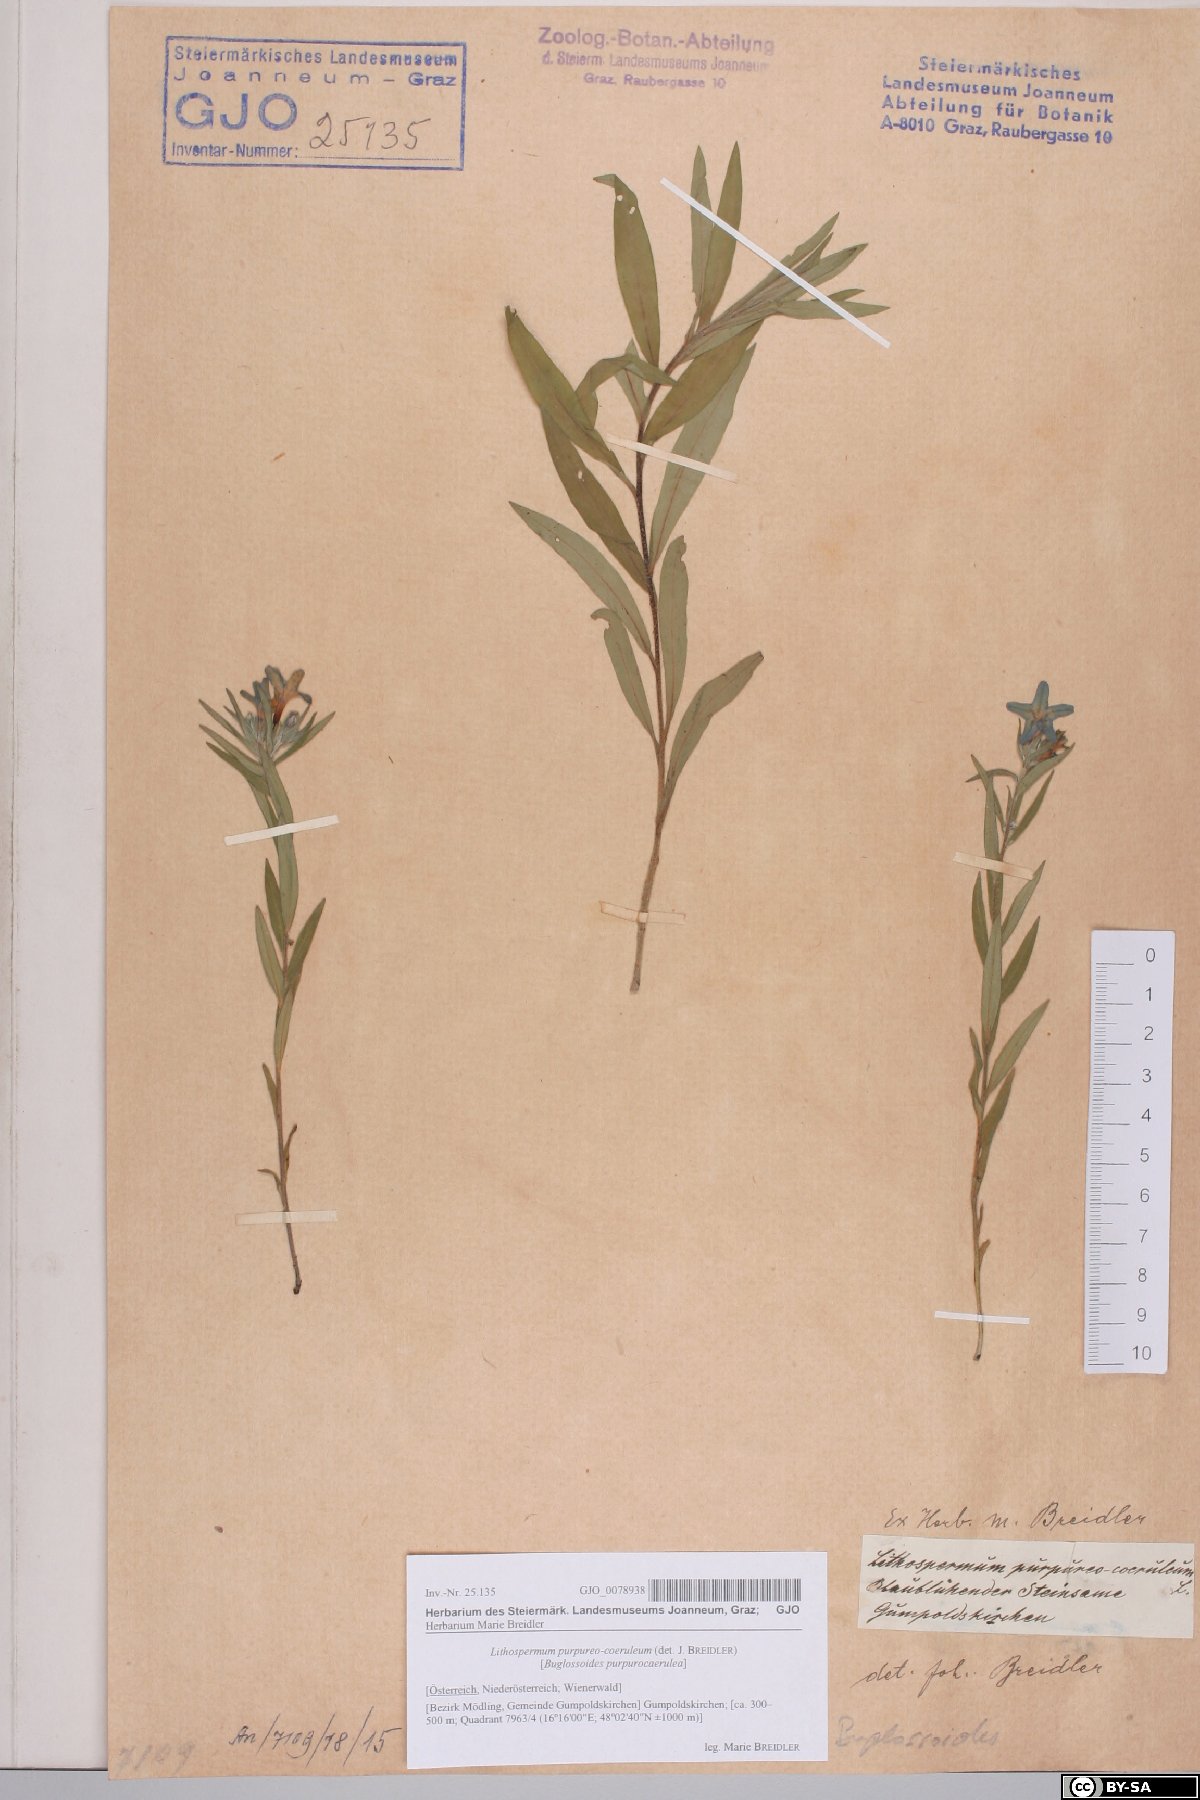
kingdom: Plantae
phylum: Tracheophyta
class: Magnoliopsida
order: Boraginales
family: Boraginaceae
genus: Aegonychon
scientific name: Aegonychon purpurocaeruleum
